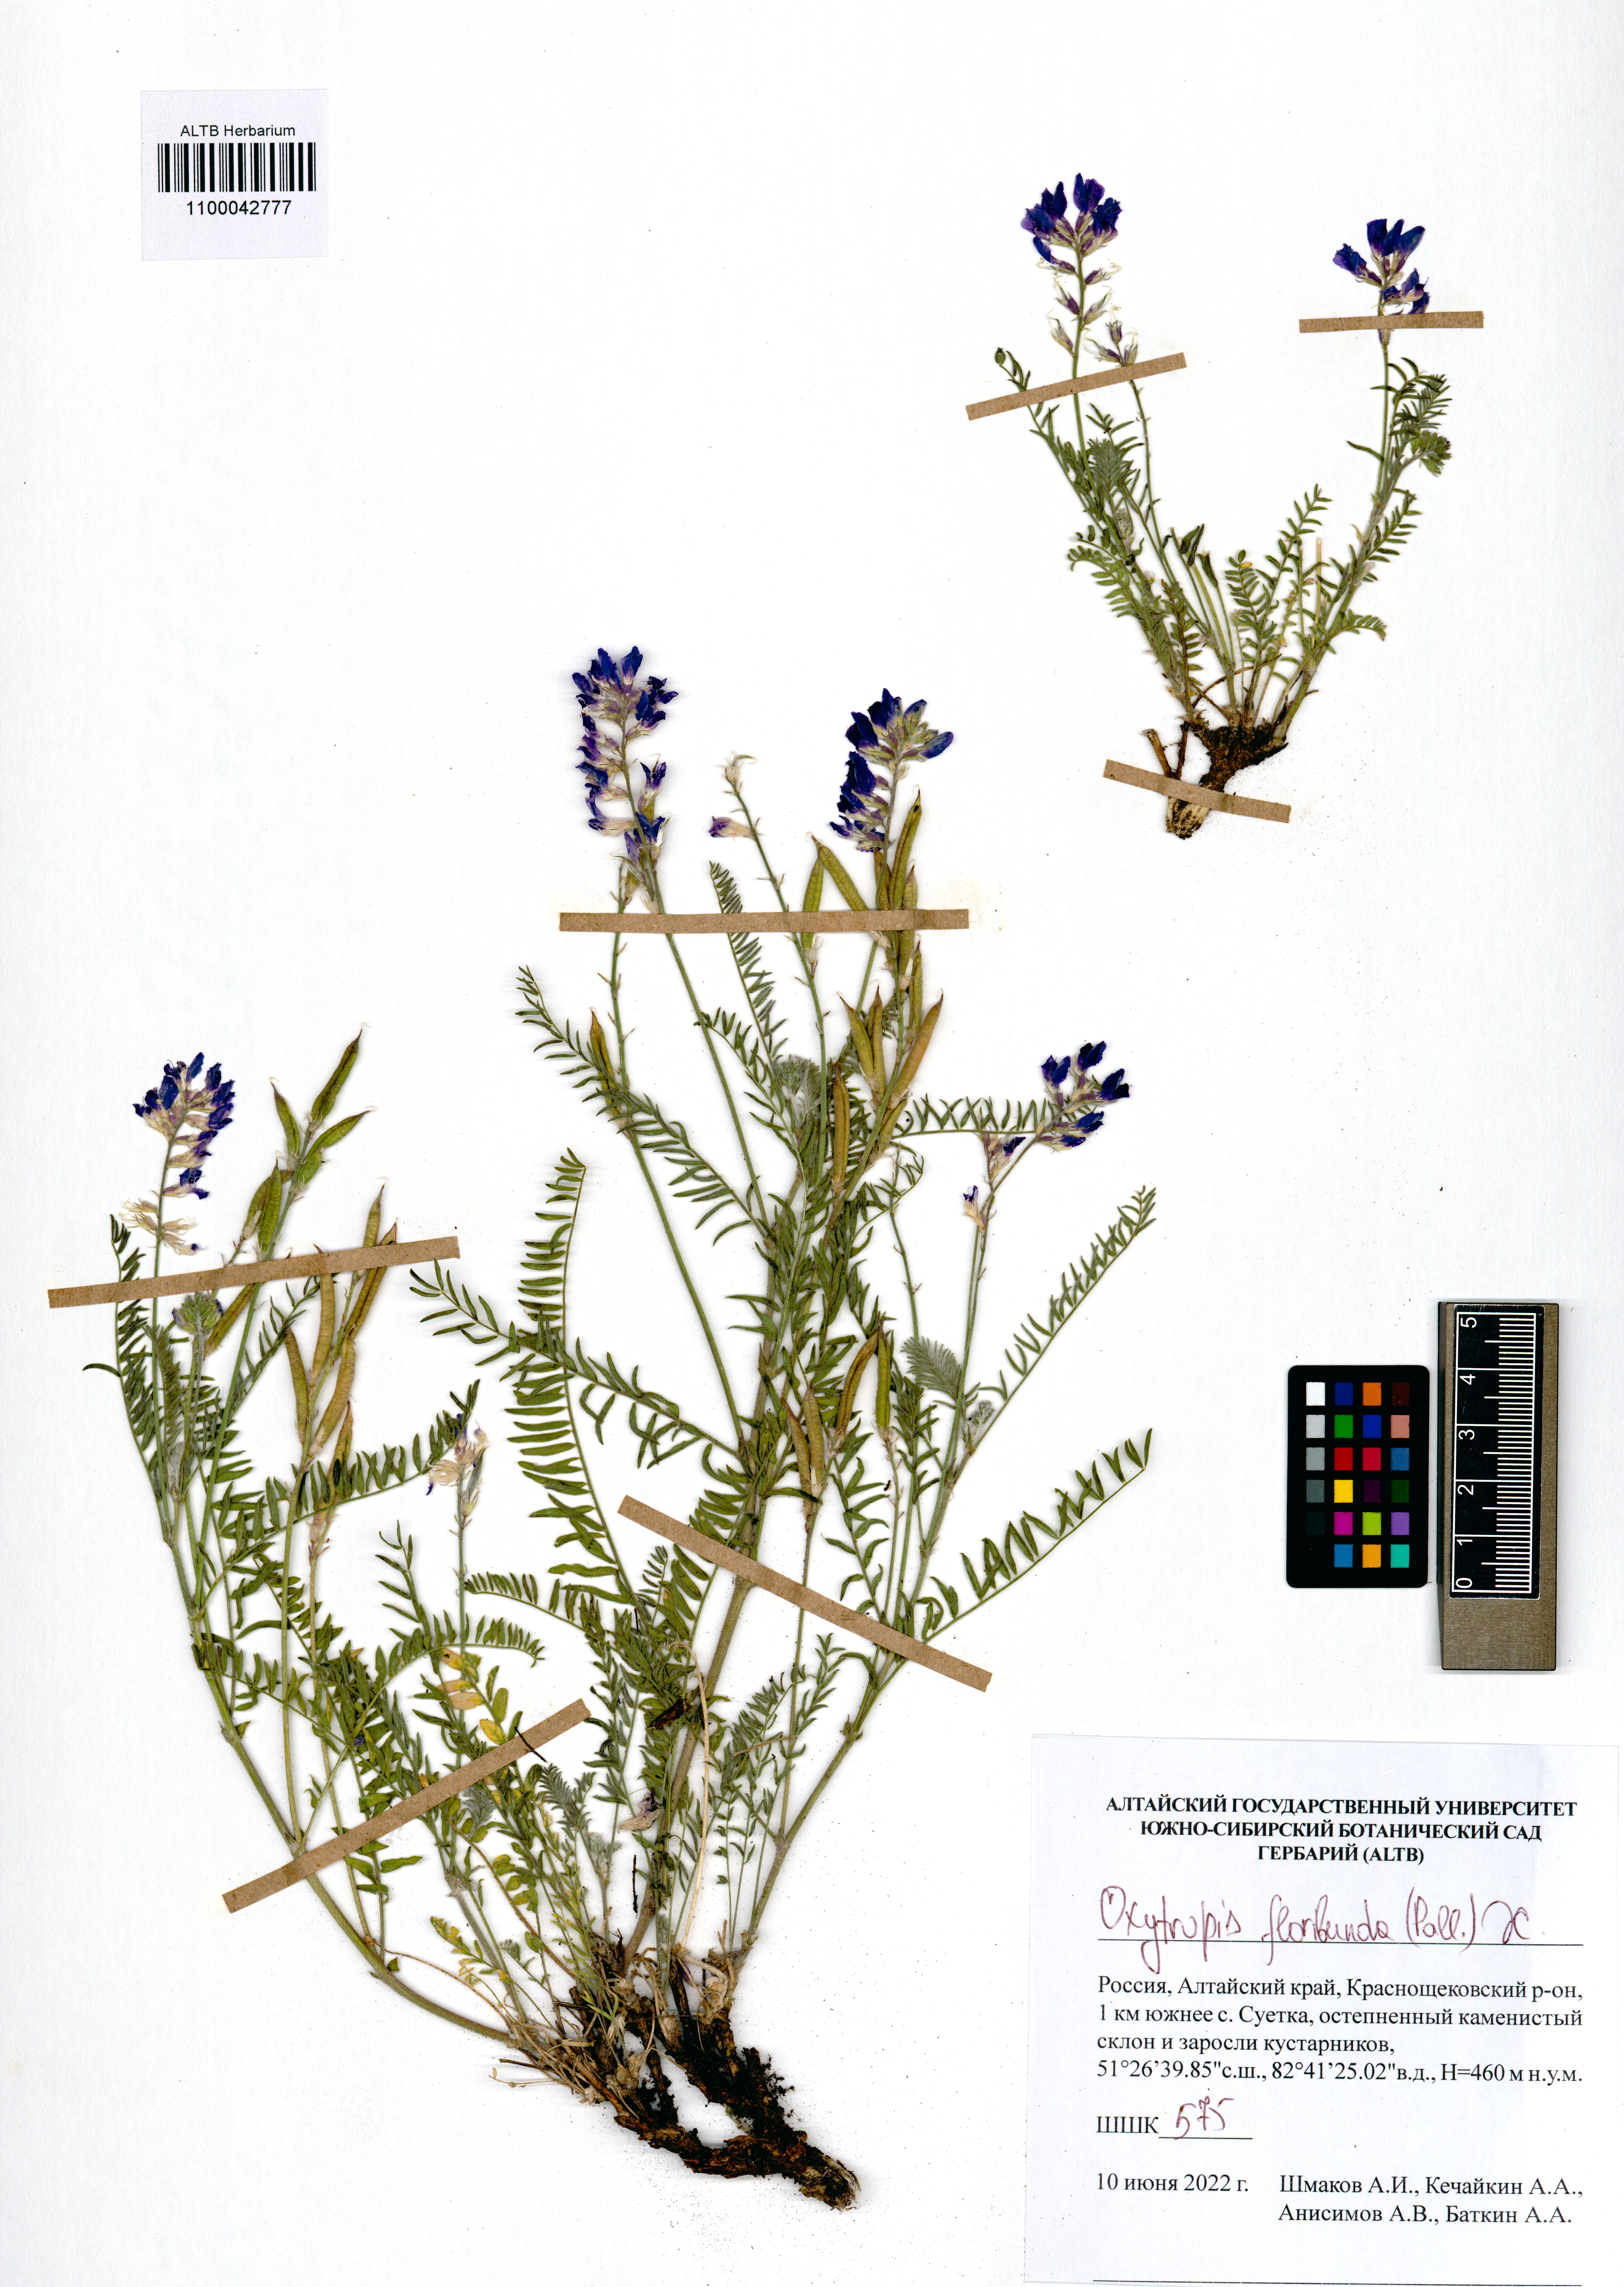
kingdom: Plantae
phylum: Tracheophyta
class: Magnoliopsida
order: Fabales
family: Fabaceae
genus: Oxytropis
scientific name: Oxytropis floribunda
